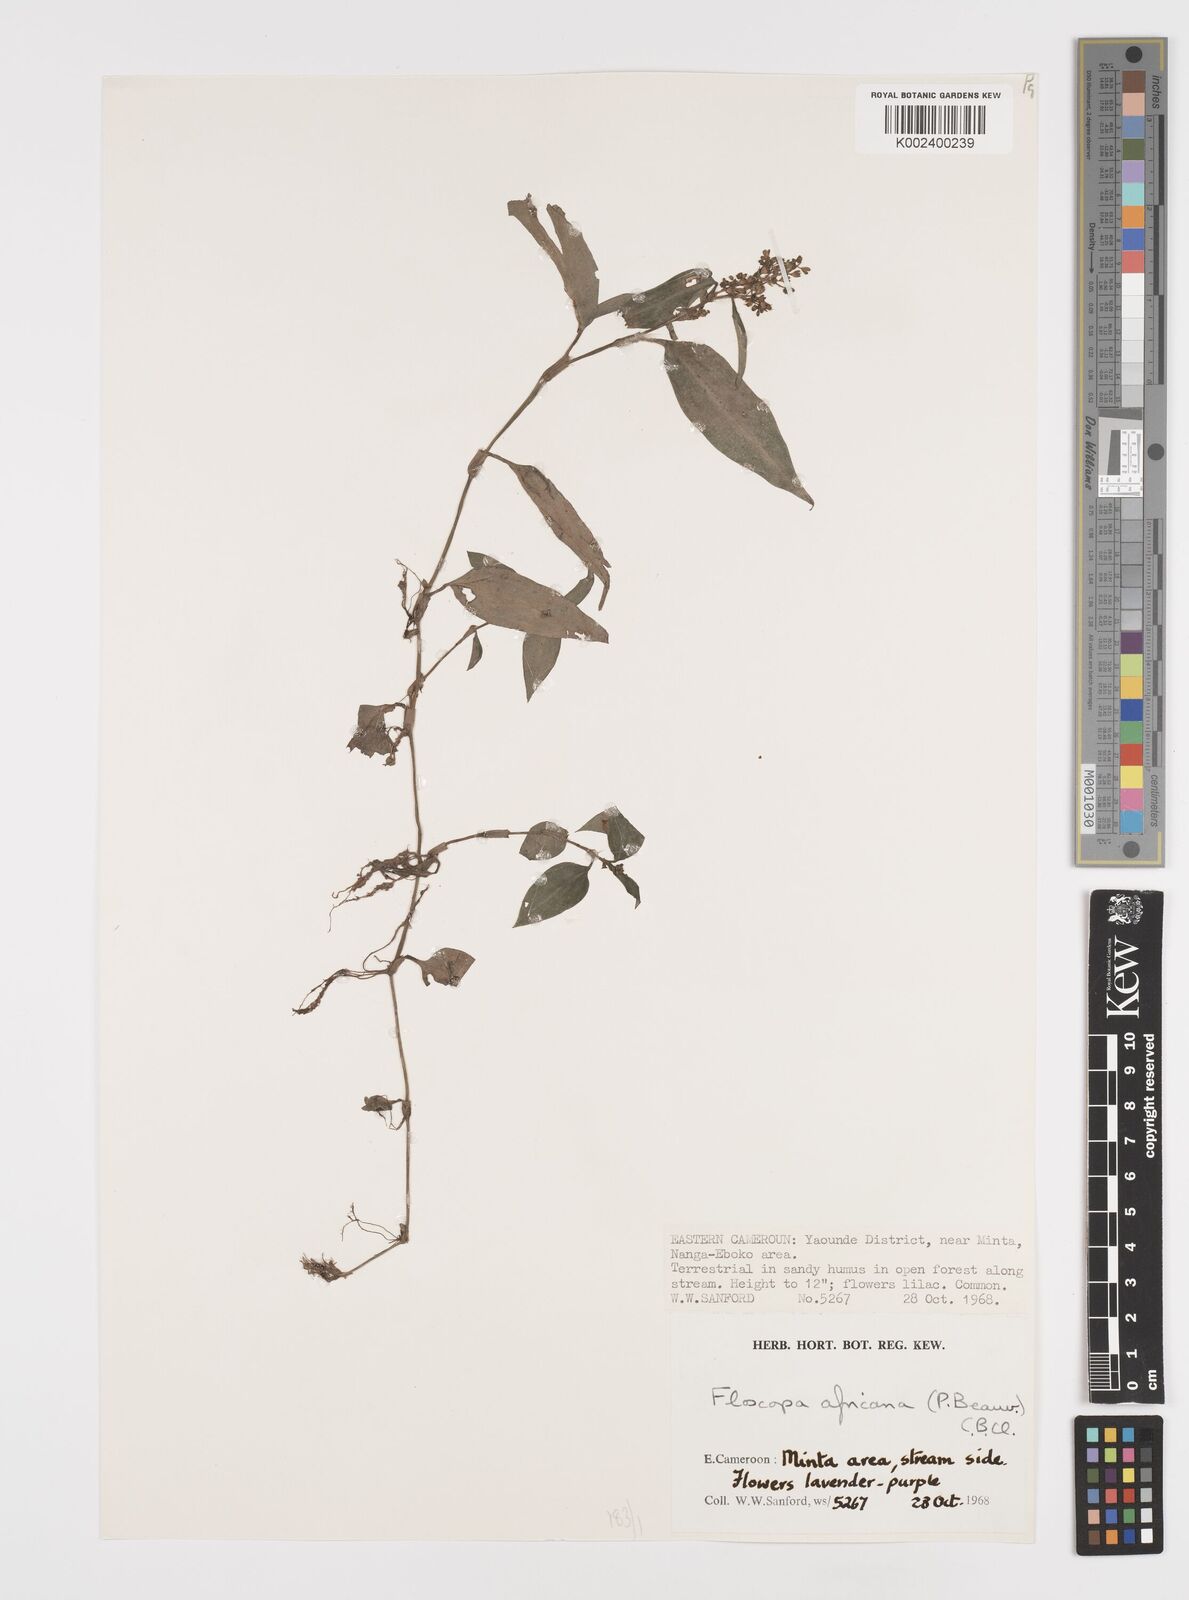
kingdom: Plantae
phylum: Tracheophyta
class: Liliopsida
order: Commelinales
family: Commelinaceae
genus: Floscopa
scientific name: Floscopa africana
